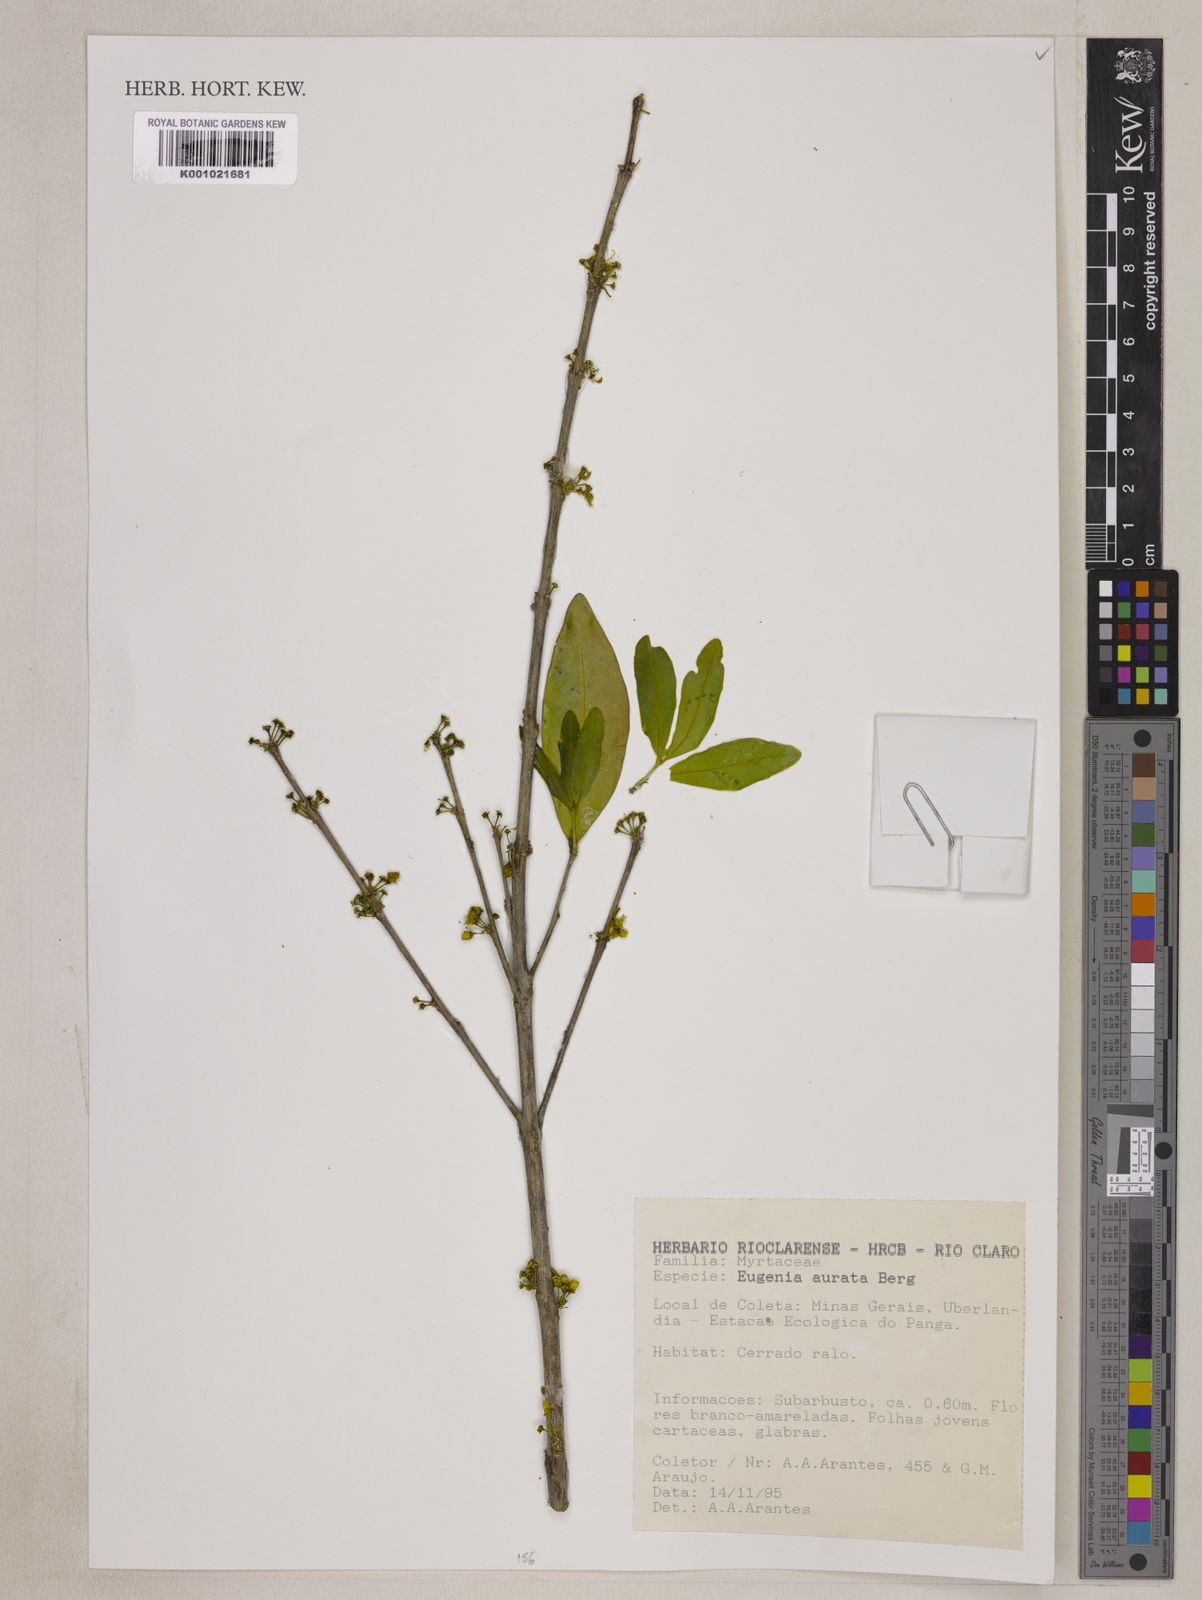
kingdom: Plantae
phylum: Tracheophyta
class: Magnoliopsida
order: Myrtales
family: Myrtaceae
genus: Eugenia
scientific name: Eugenia aurata
